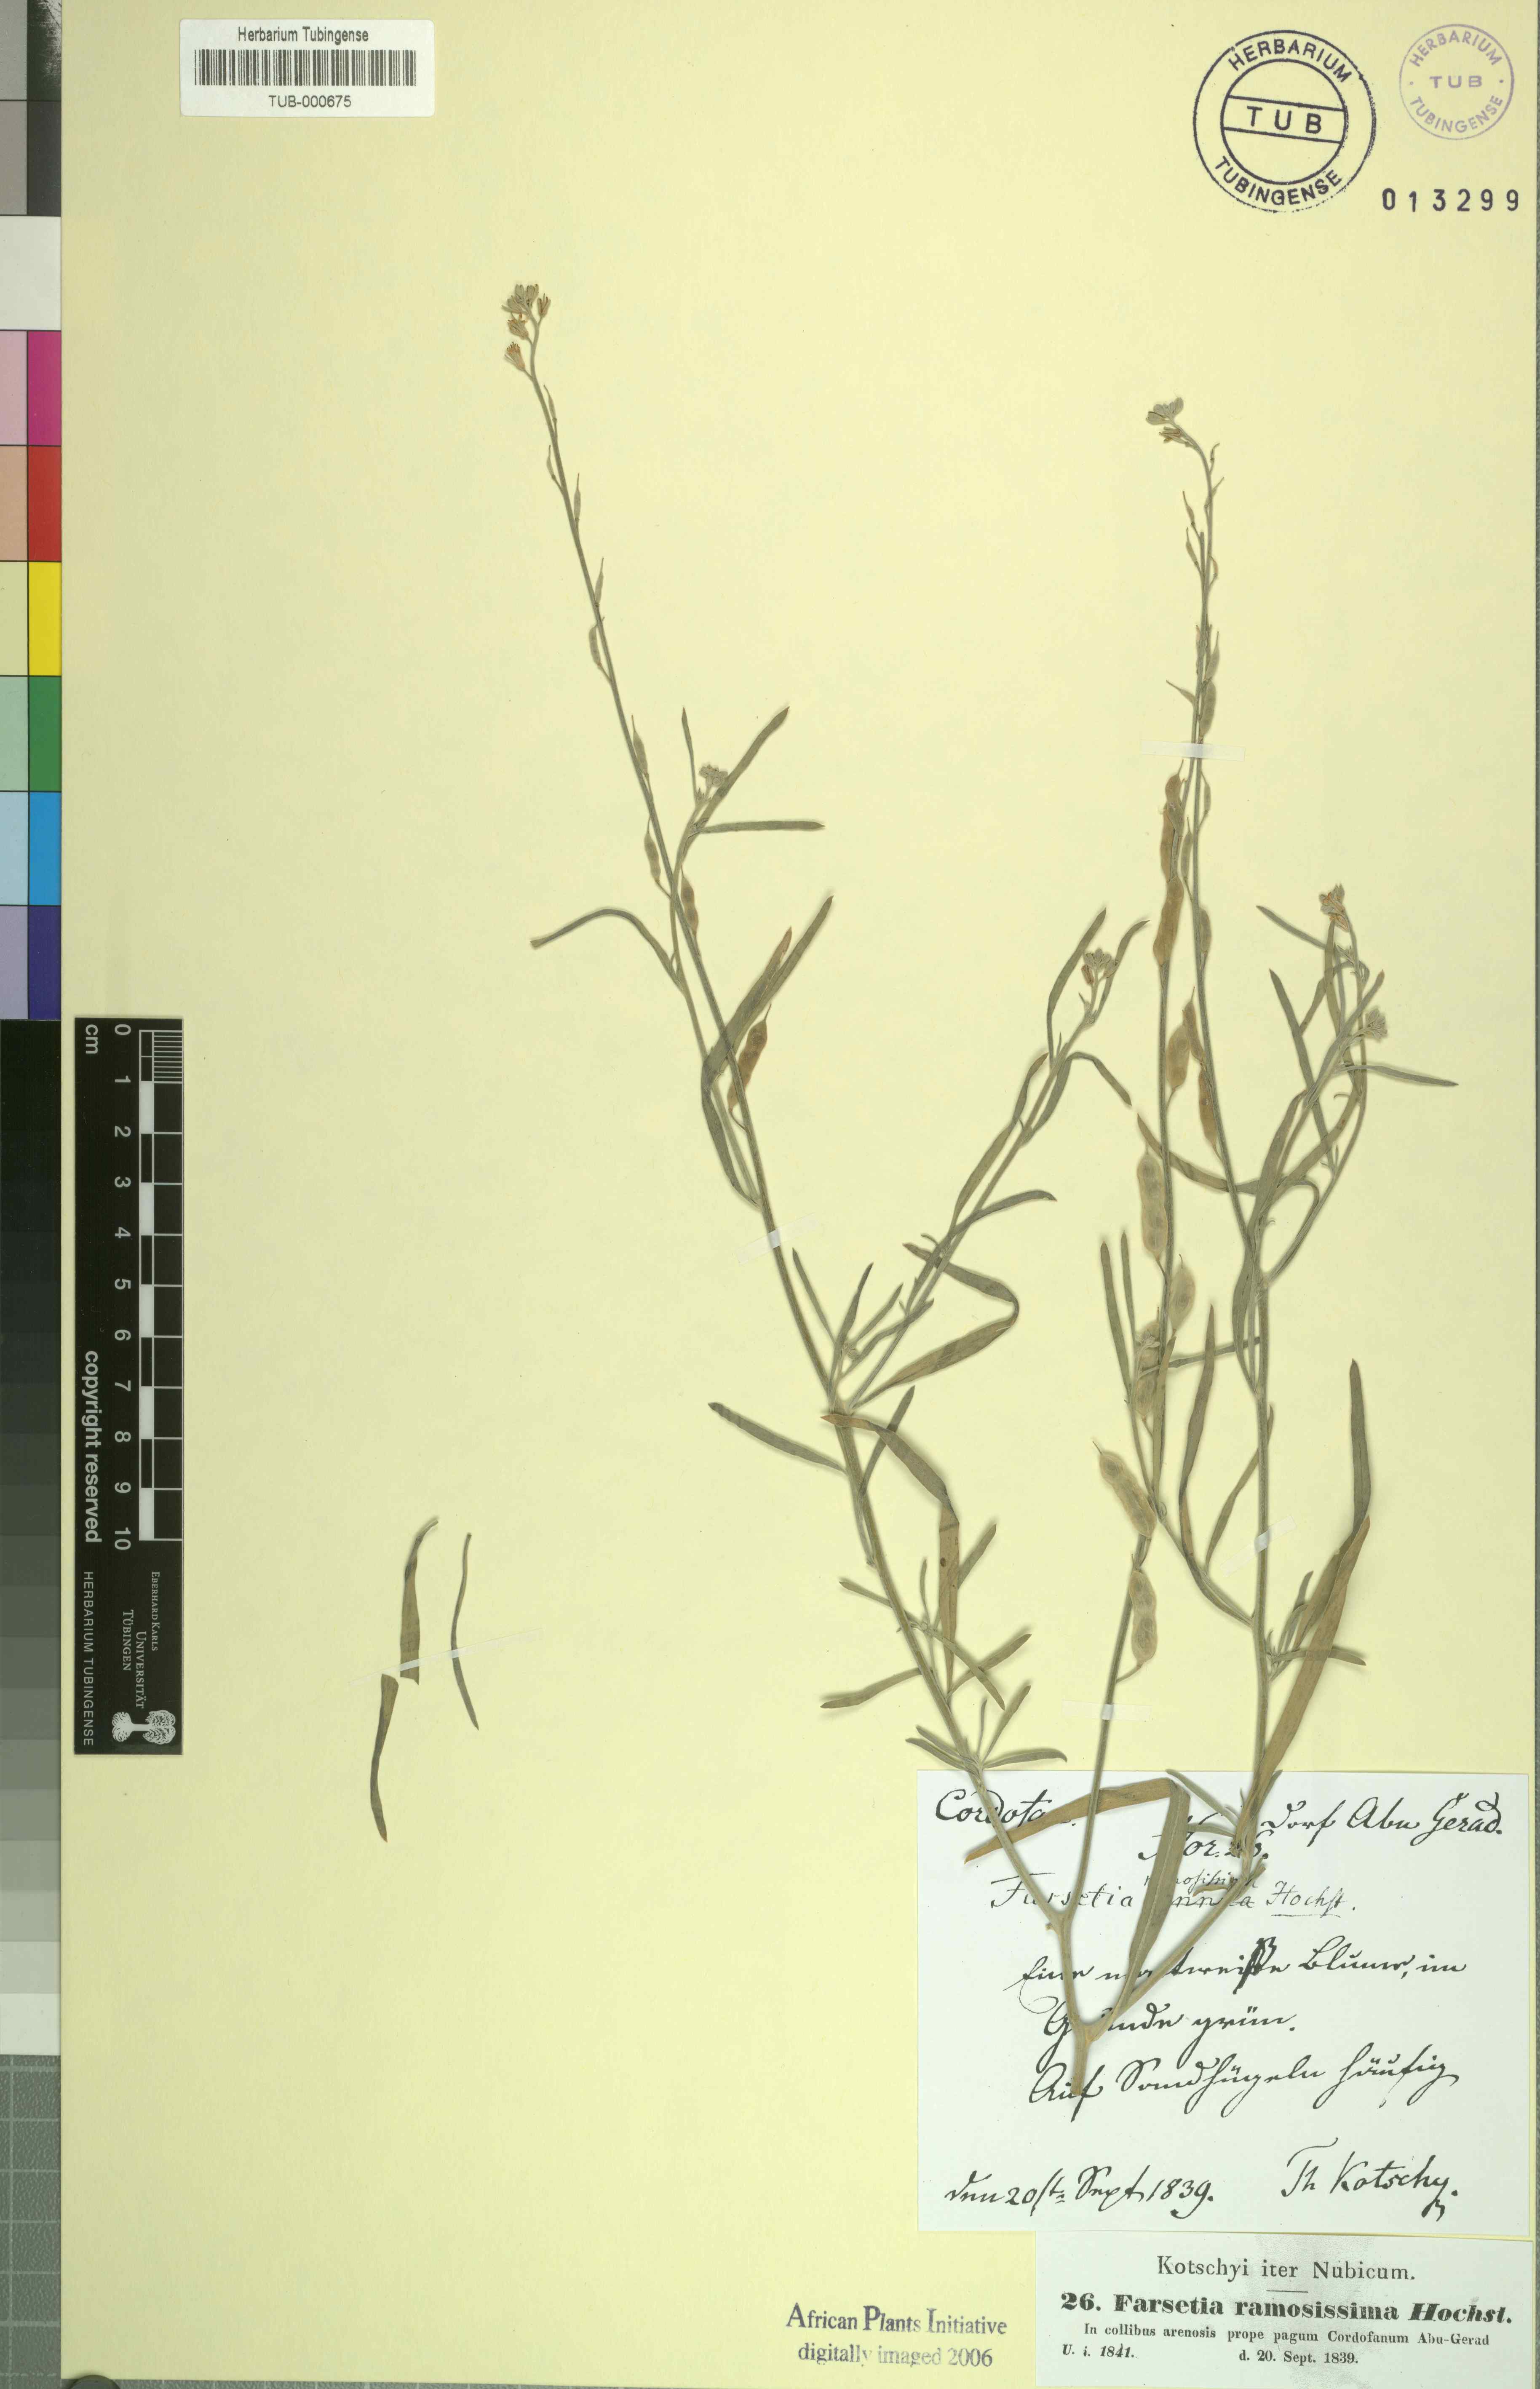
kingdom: Plantae
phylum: Tracheophyta
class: Magnoliopsida
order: Brassicales
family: Brassicaceae
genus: Farsetia
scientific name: Farsetia stylosa
